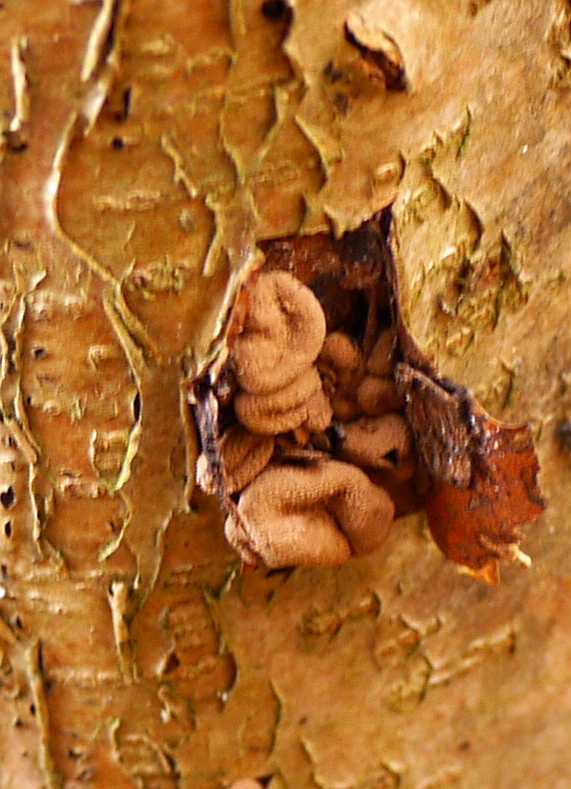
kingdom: Fungi
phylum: Ascomycota
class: Leotiomycetes
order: Helotiales
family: Cenangiaceae
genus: Encoelia
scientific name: Encoelia furfuracea
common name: hassel-læderskive
